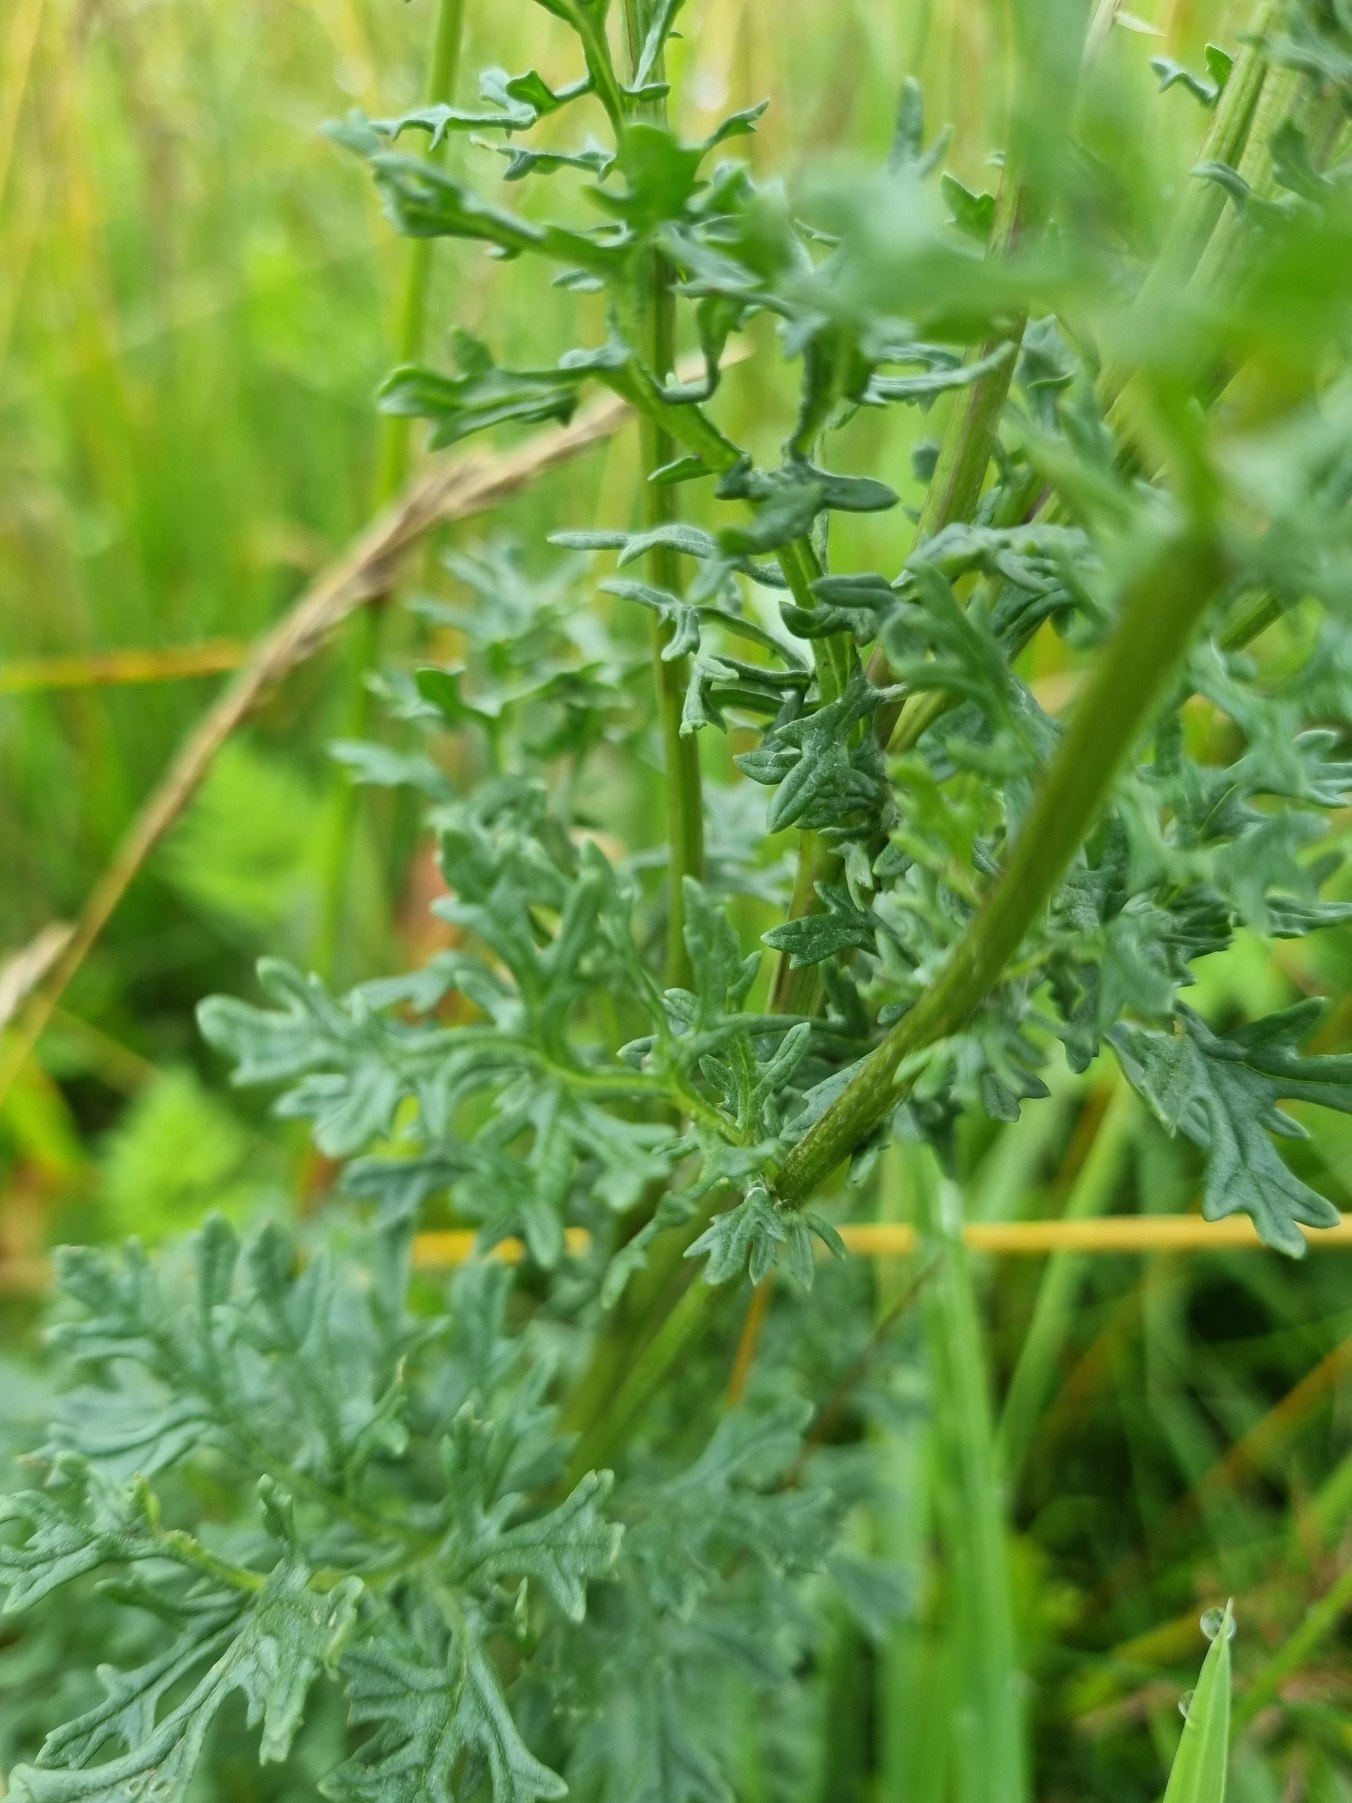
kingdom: Plantae
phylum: Tracheophyta
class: Magnoliopsida
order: Asterales
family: Asteraceae
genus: Jacobaea
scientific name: Jacobaea vulgaris
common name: Eng-brandbæger
